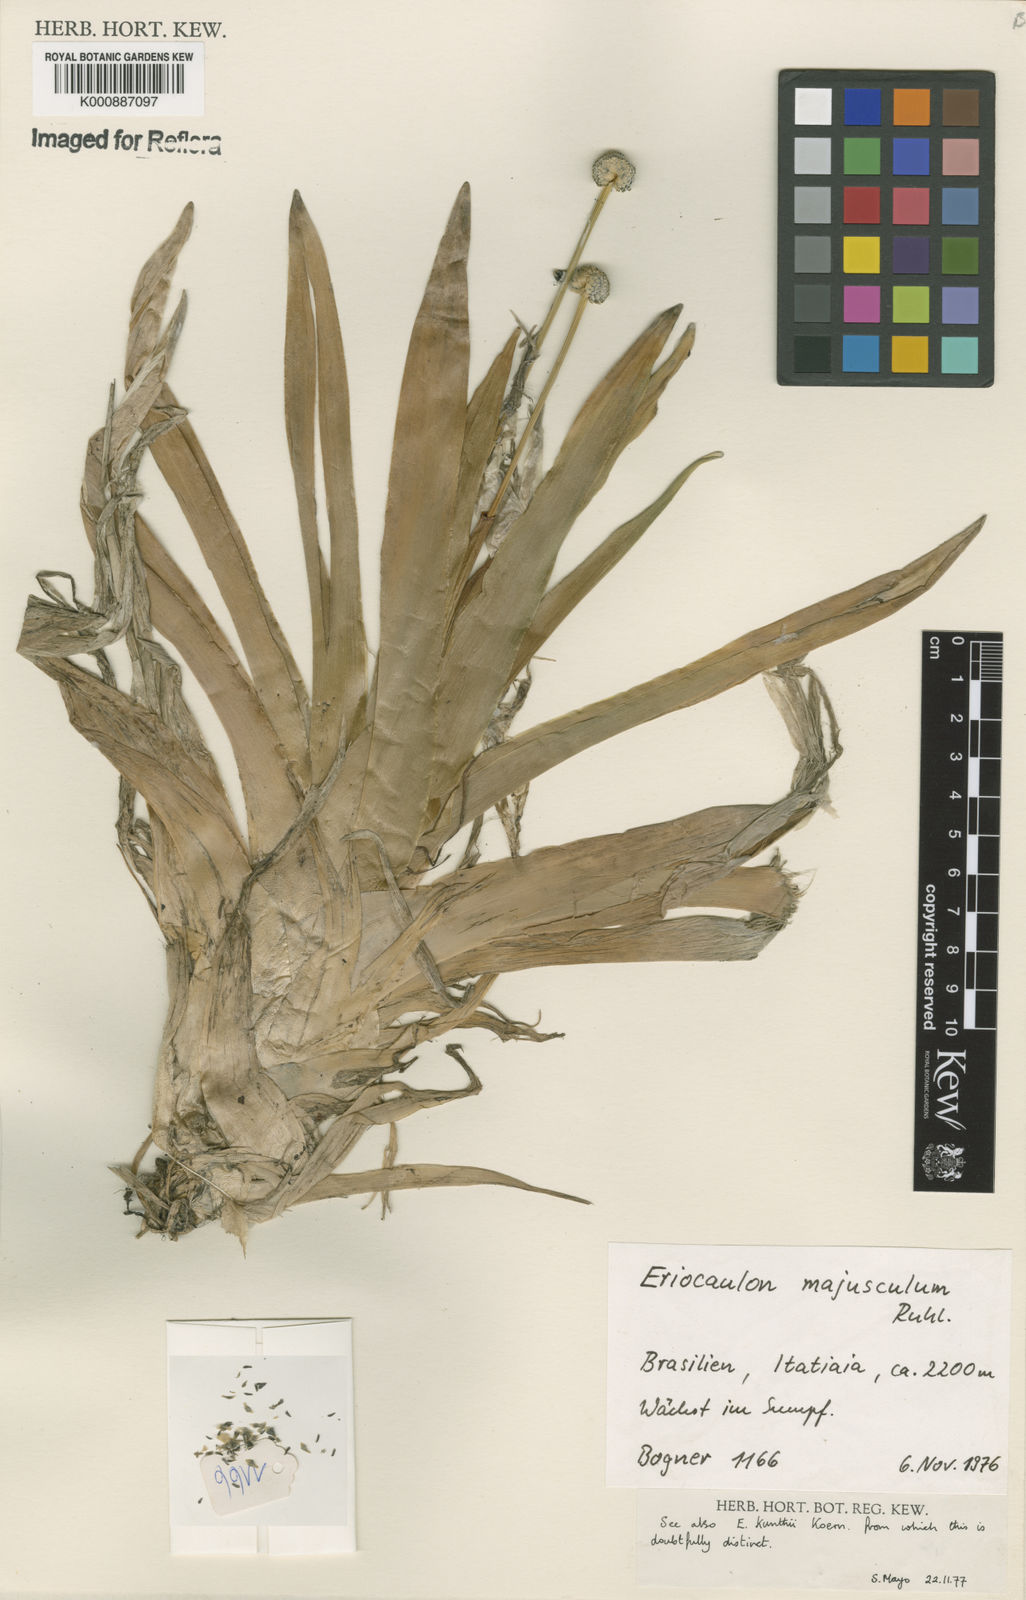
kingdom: Plantae
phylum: Tracheophyta
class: Liliopsida
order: Poales
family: Eriocaulaceae
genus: Eriocaulon
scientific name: Eriocaulon majusculum
